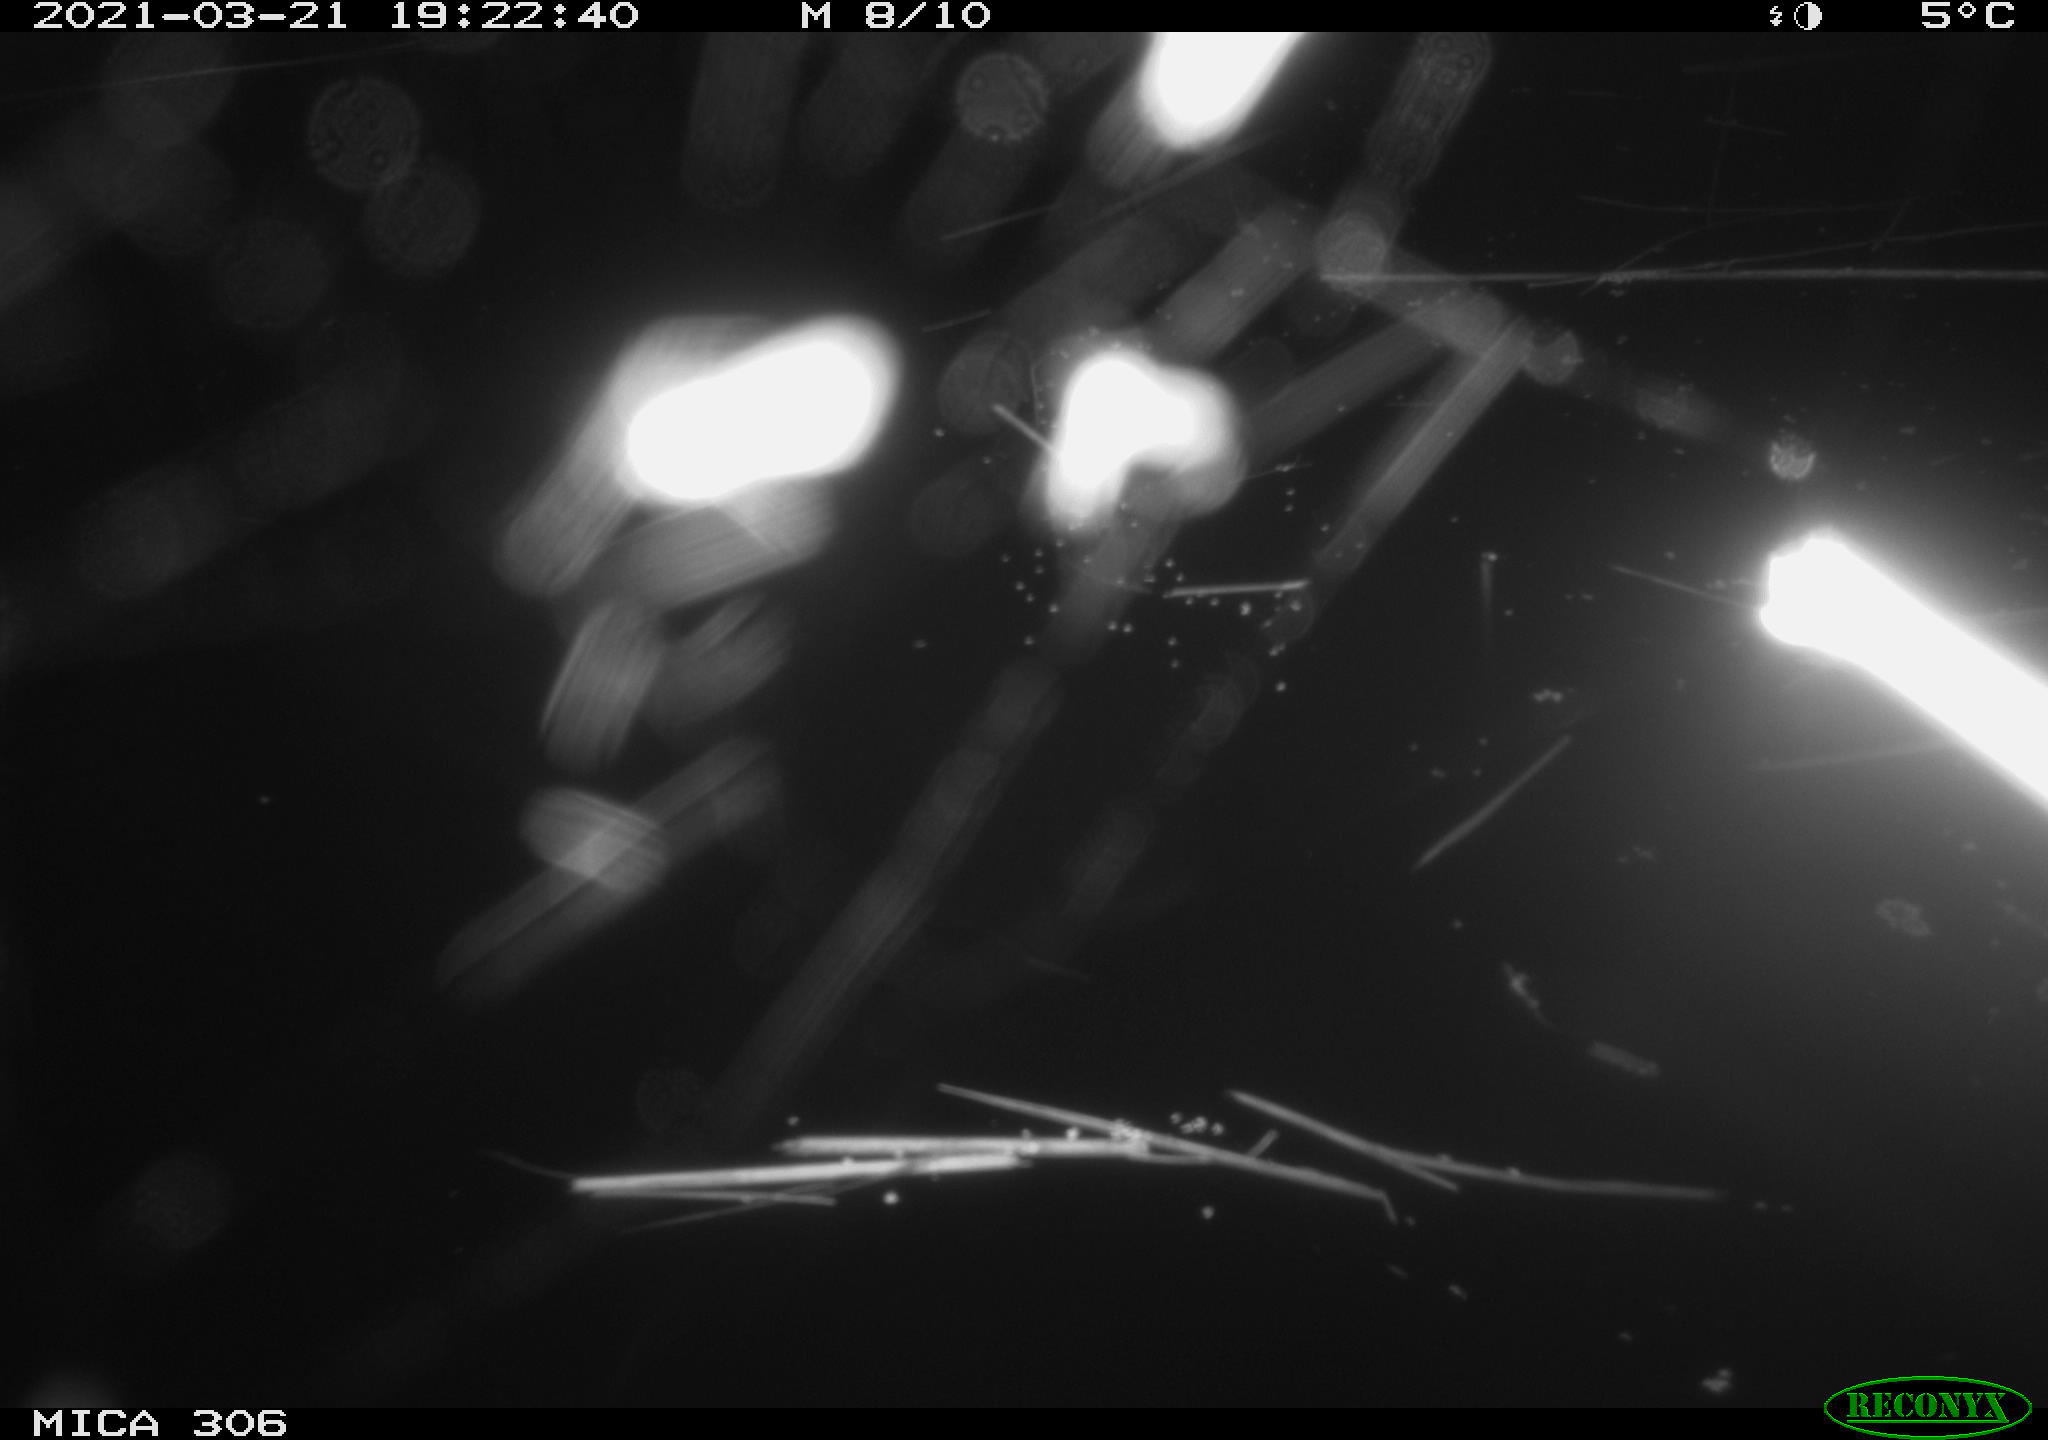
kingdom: Animalia
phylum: Chordata
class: Aves
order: Gruiformes
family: Rallidae
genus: Gallinula
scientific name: Gallinula chloropus
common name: Common moorhen
